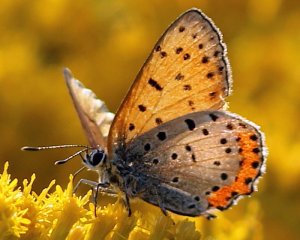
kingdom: Animalia
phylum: Arthropoda
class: Insecta
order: Lepidoptera
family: Sesiidae
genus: Sesia
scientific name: Sesia Lycaena hyllus
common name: Bronze Copper
